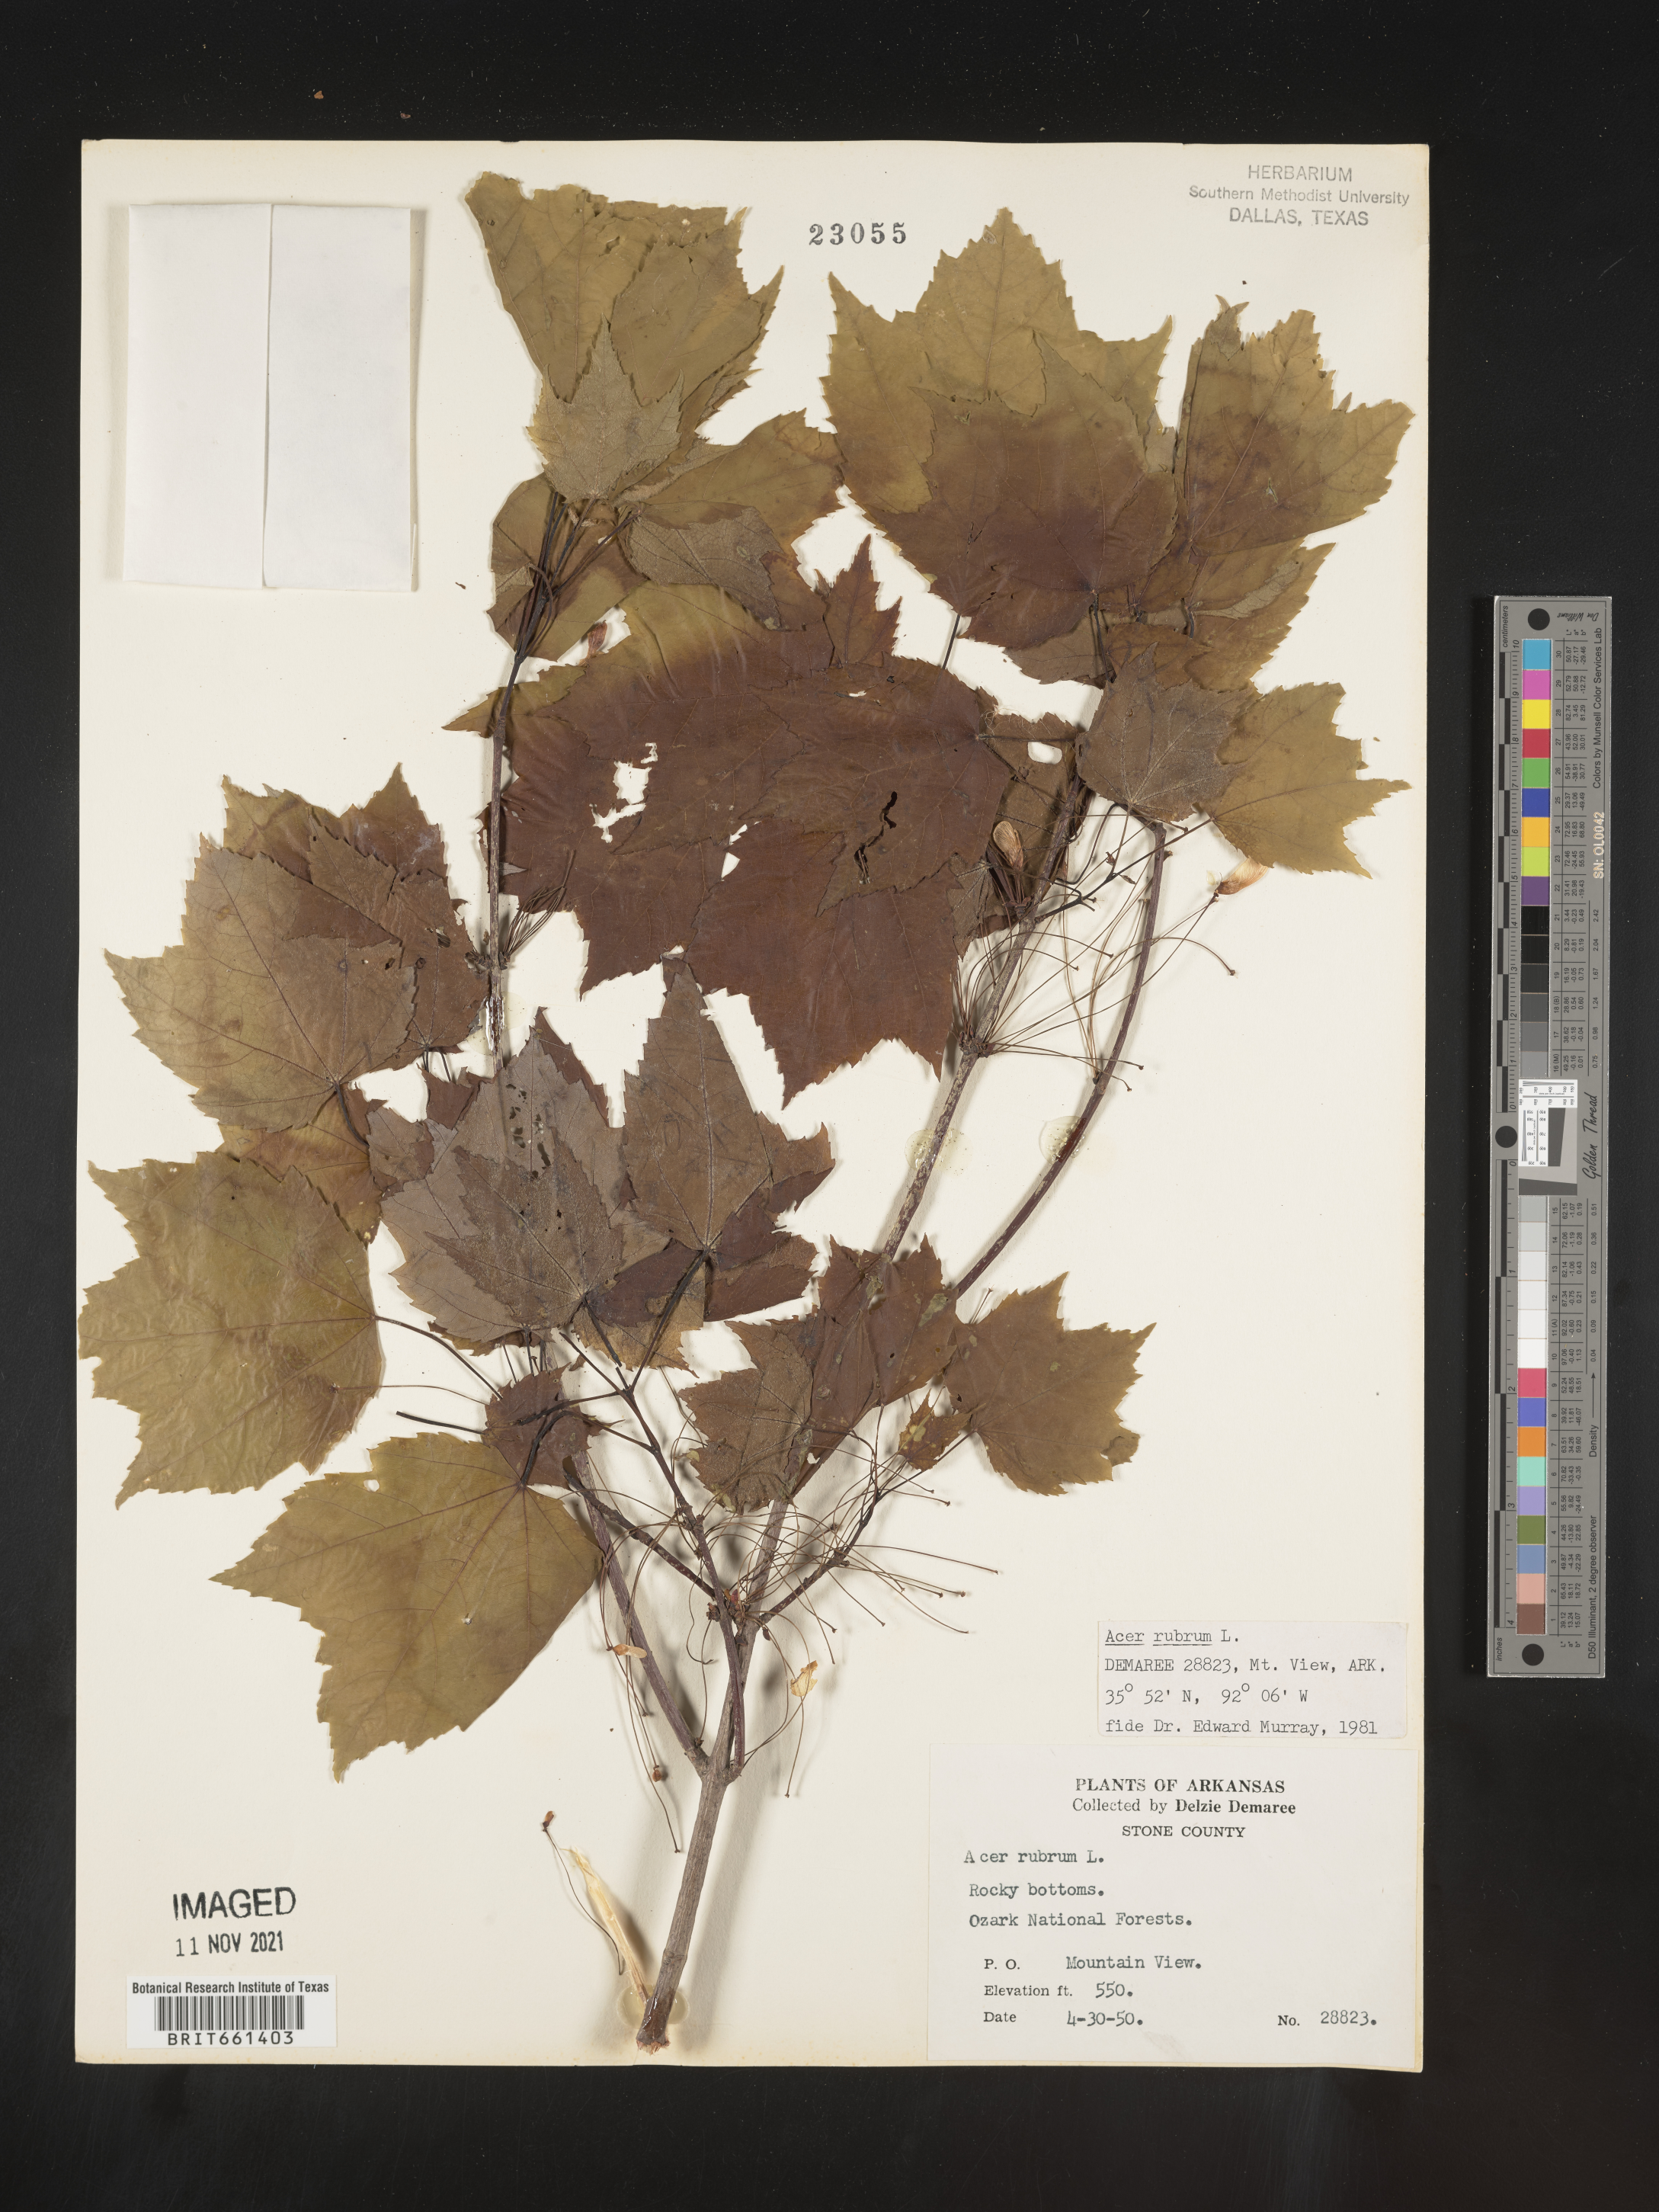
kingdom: Plantae
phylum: Tracheophyta
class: Magnoliopsida
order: Sapindales
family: Sapindaceae
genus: Acer
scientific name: Acer rubrum
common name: Red maple
